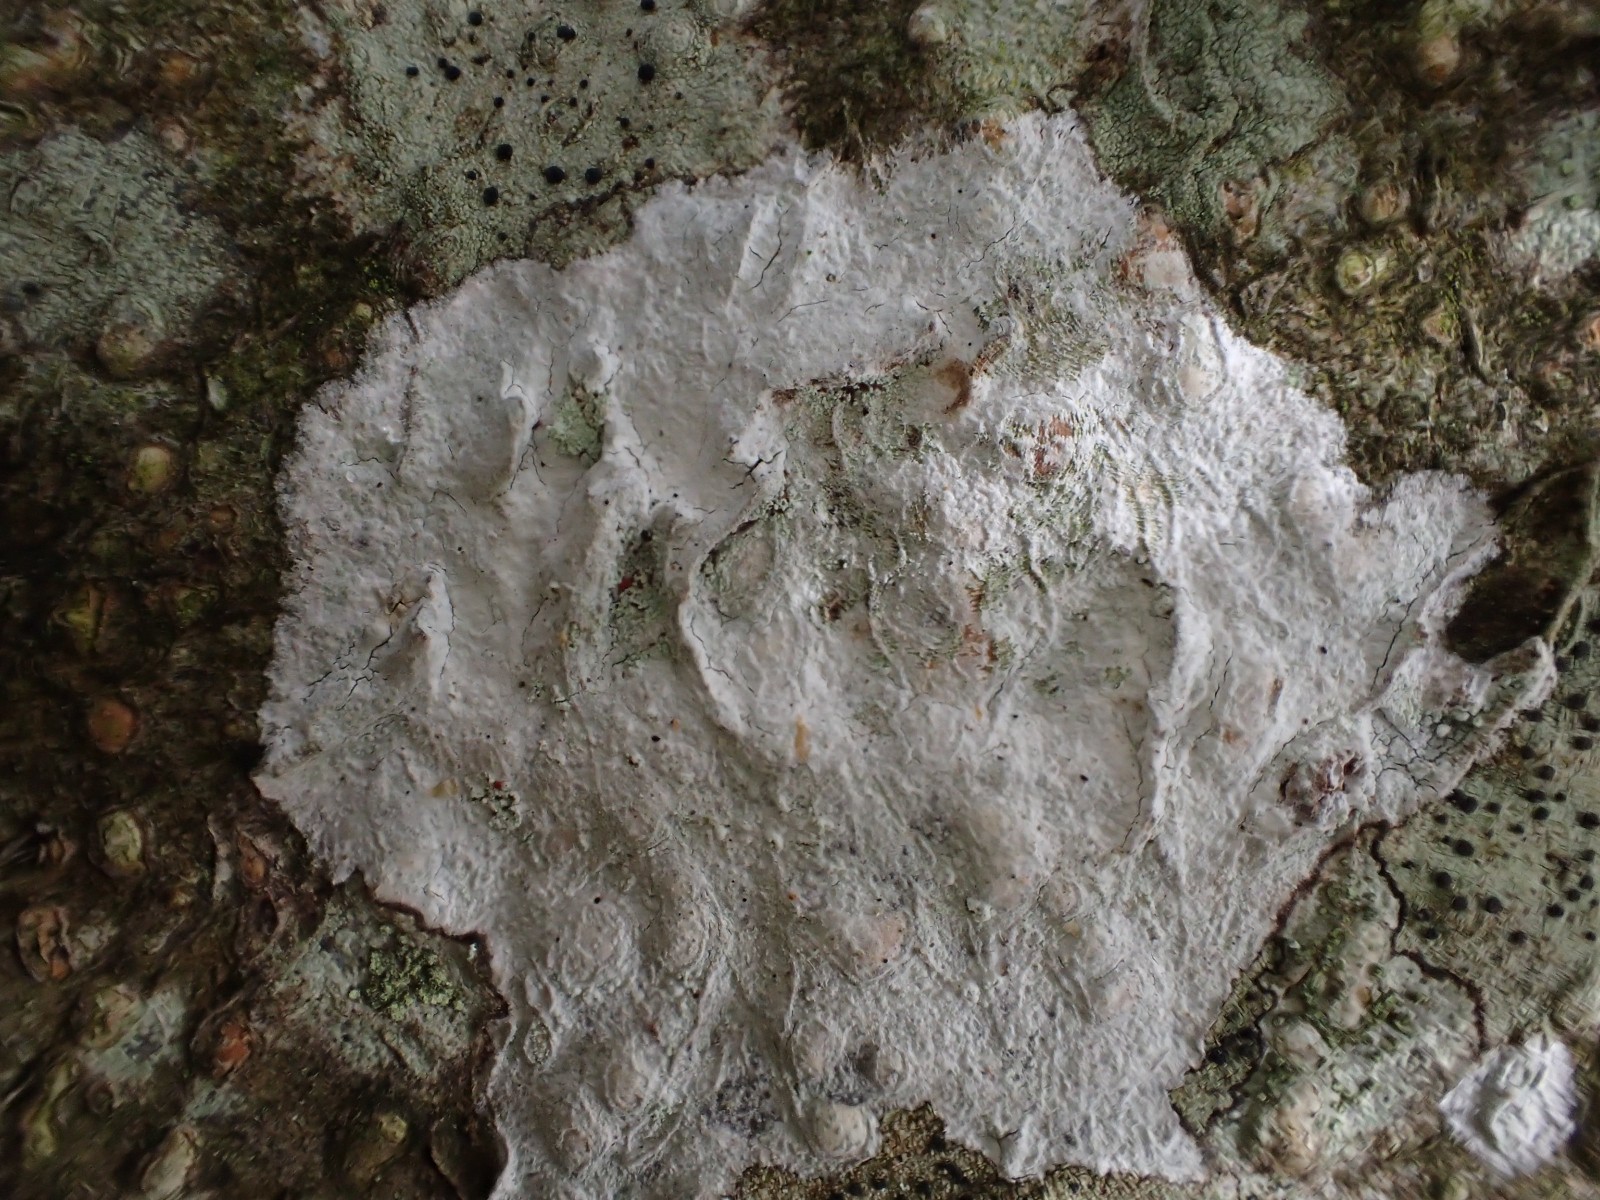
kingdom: Fungi
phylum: Ascomycota
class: Lecanoromycetes
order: Ostropales
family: Phlyctidaceae
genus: Phlyctis
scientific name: Phlyctis argena
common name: almindelig sølvlav
